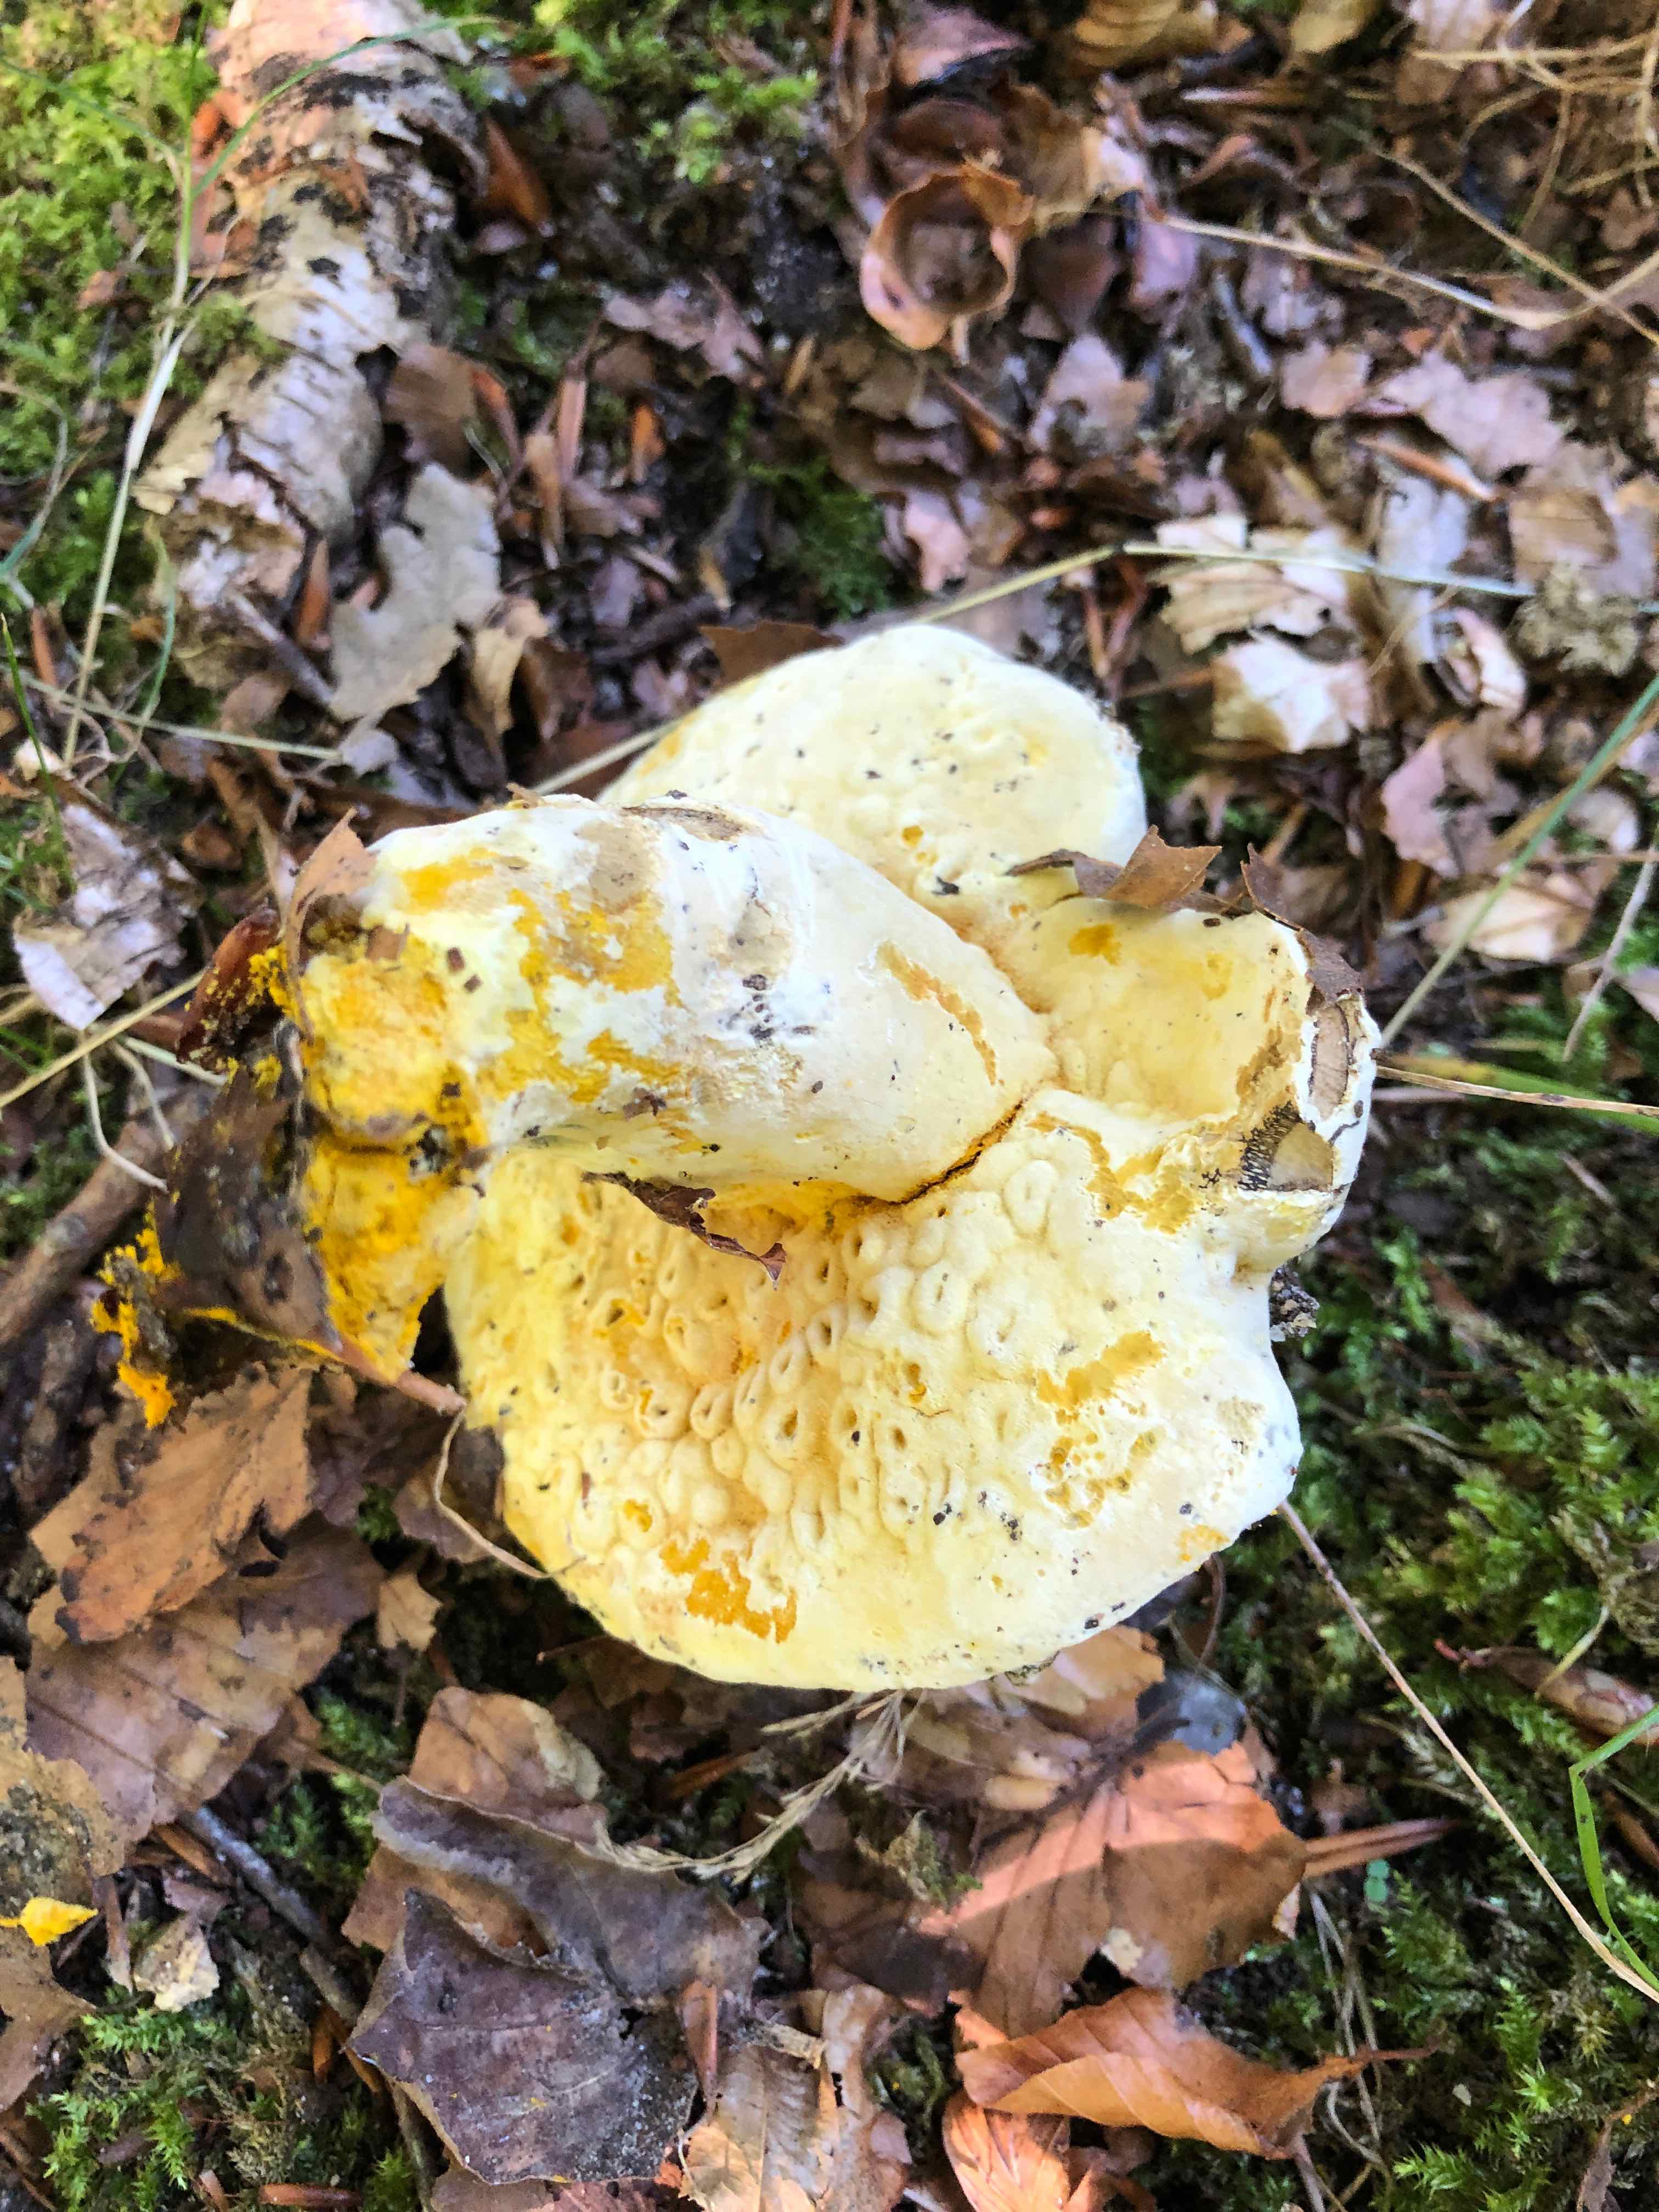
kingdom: Fungi
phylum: Ascomycota
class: Sordariomycetes
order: Hypocreales
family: Hypocreaceae
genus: Hypomyces
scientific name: Hypomyces chrysospermus
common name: gulskimmel-snylteskorpe
